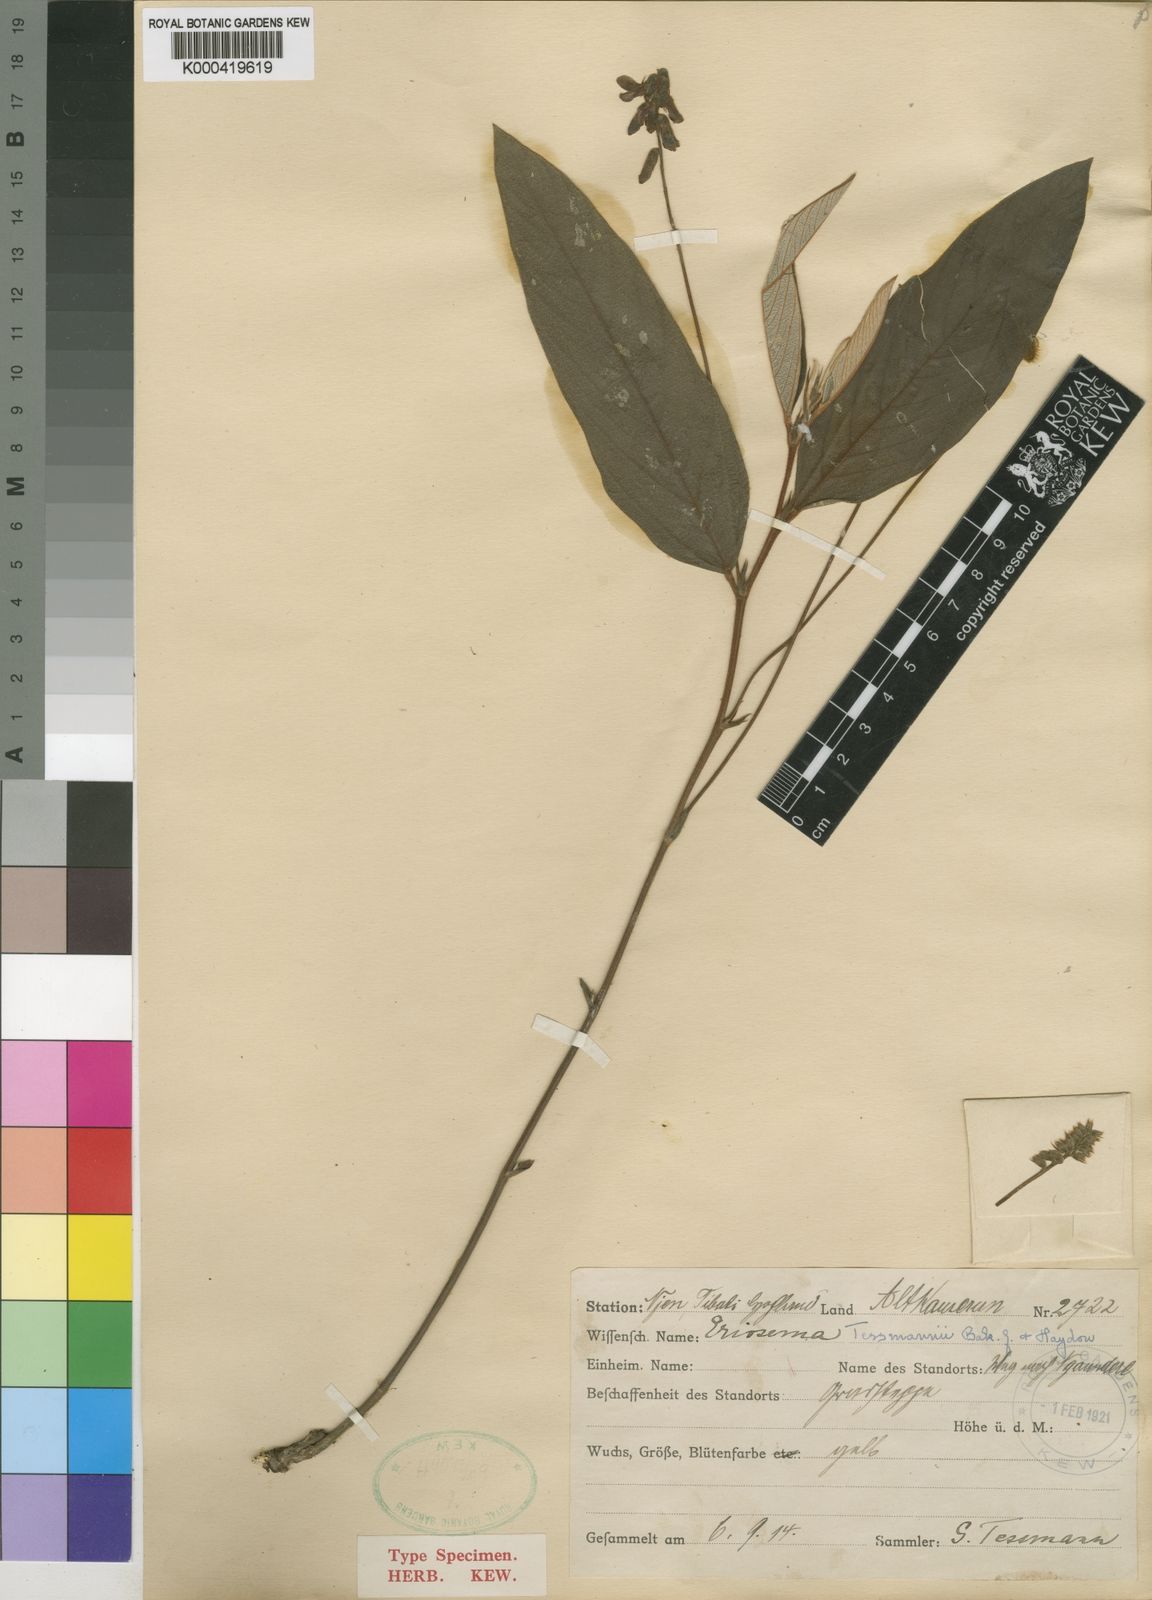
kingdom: Plantae
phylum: Tracheophyta
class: Magnoliopsida
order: Fabales
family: Fabaceae
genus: Eriosema
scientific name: Eriosema tessmannii
